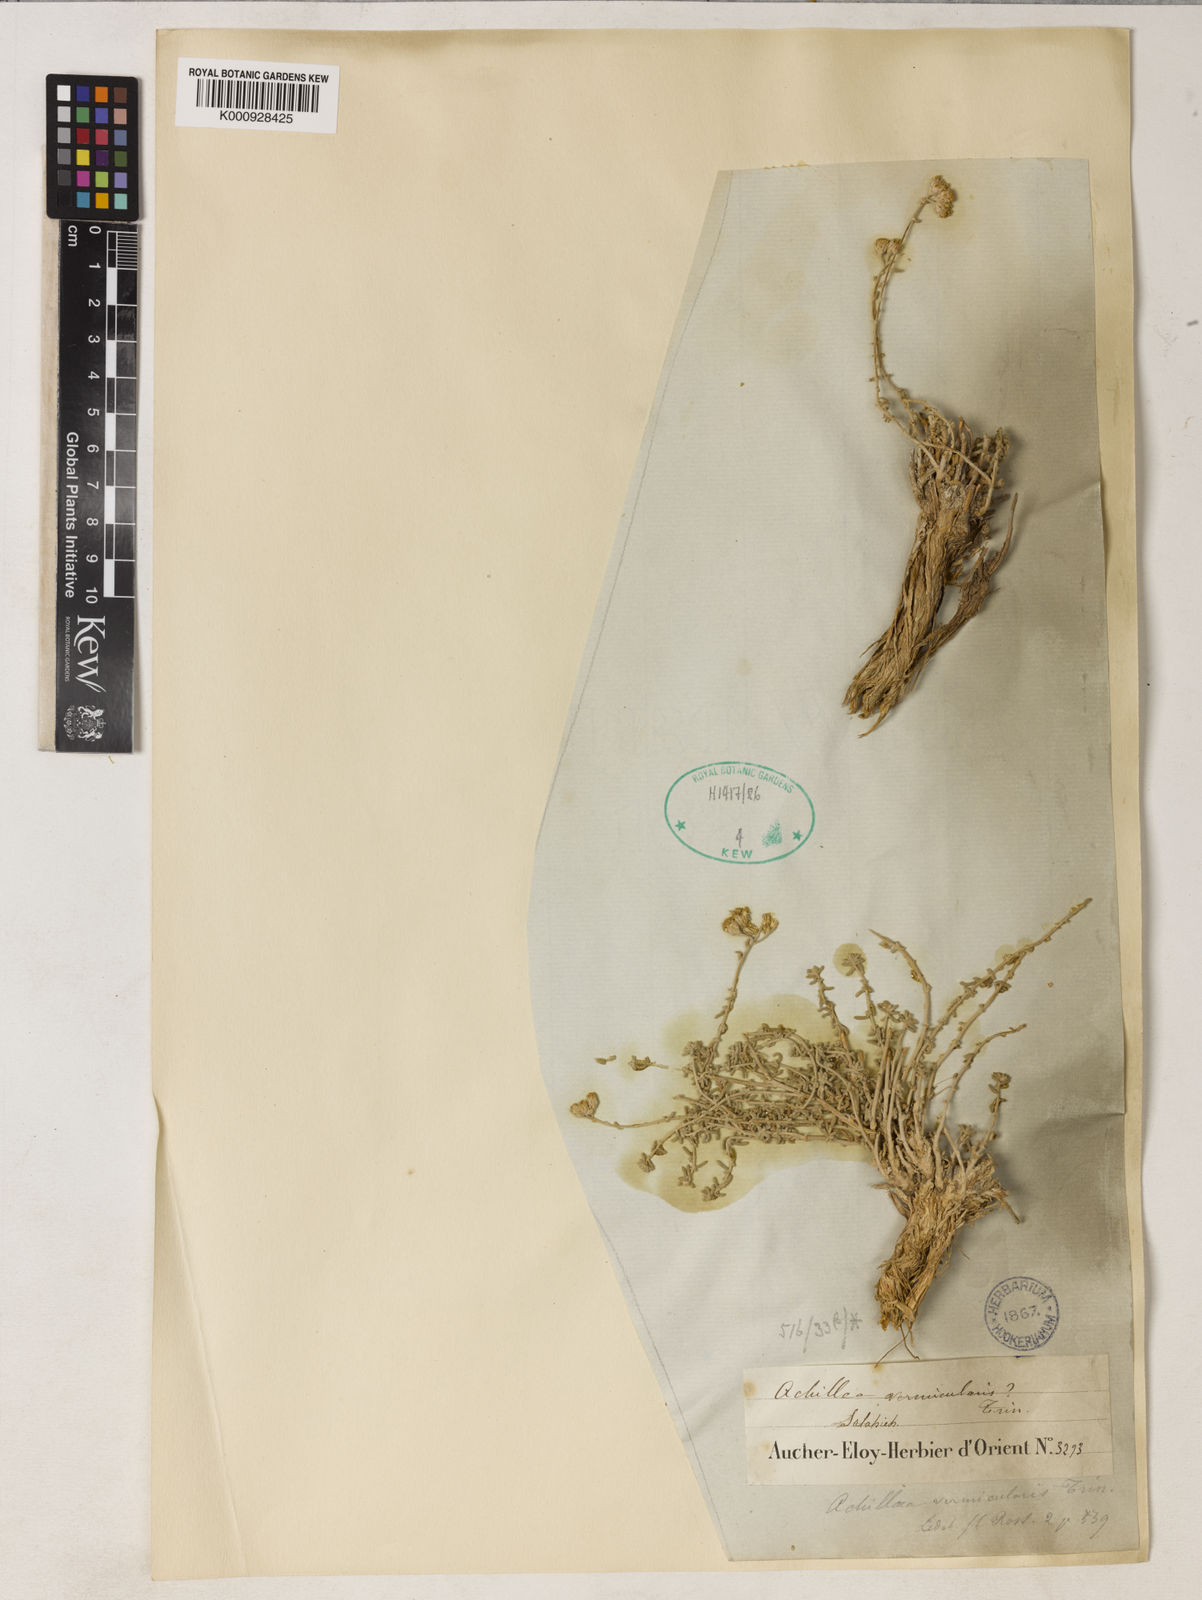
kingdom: Plantae
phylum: Tracheophyta
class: Magnoliopsida
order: Asterales
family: Asteraceae
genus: Achillea
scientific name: Achillea falcata
